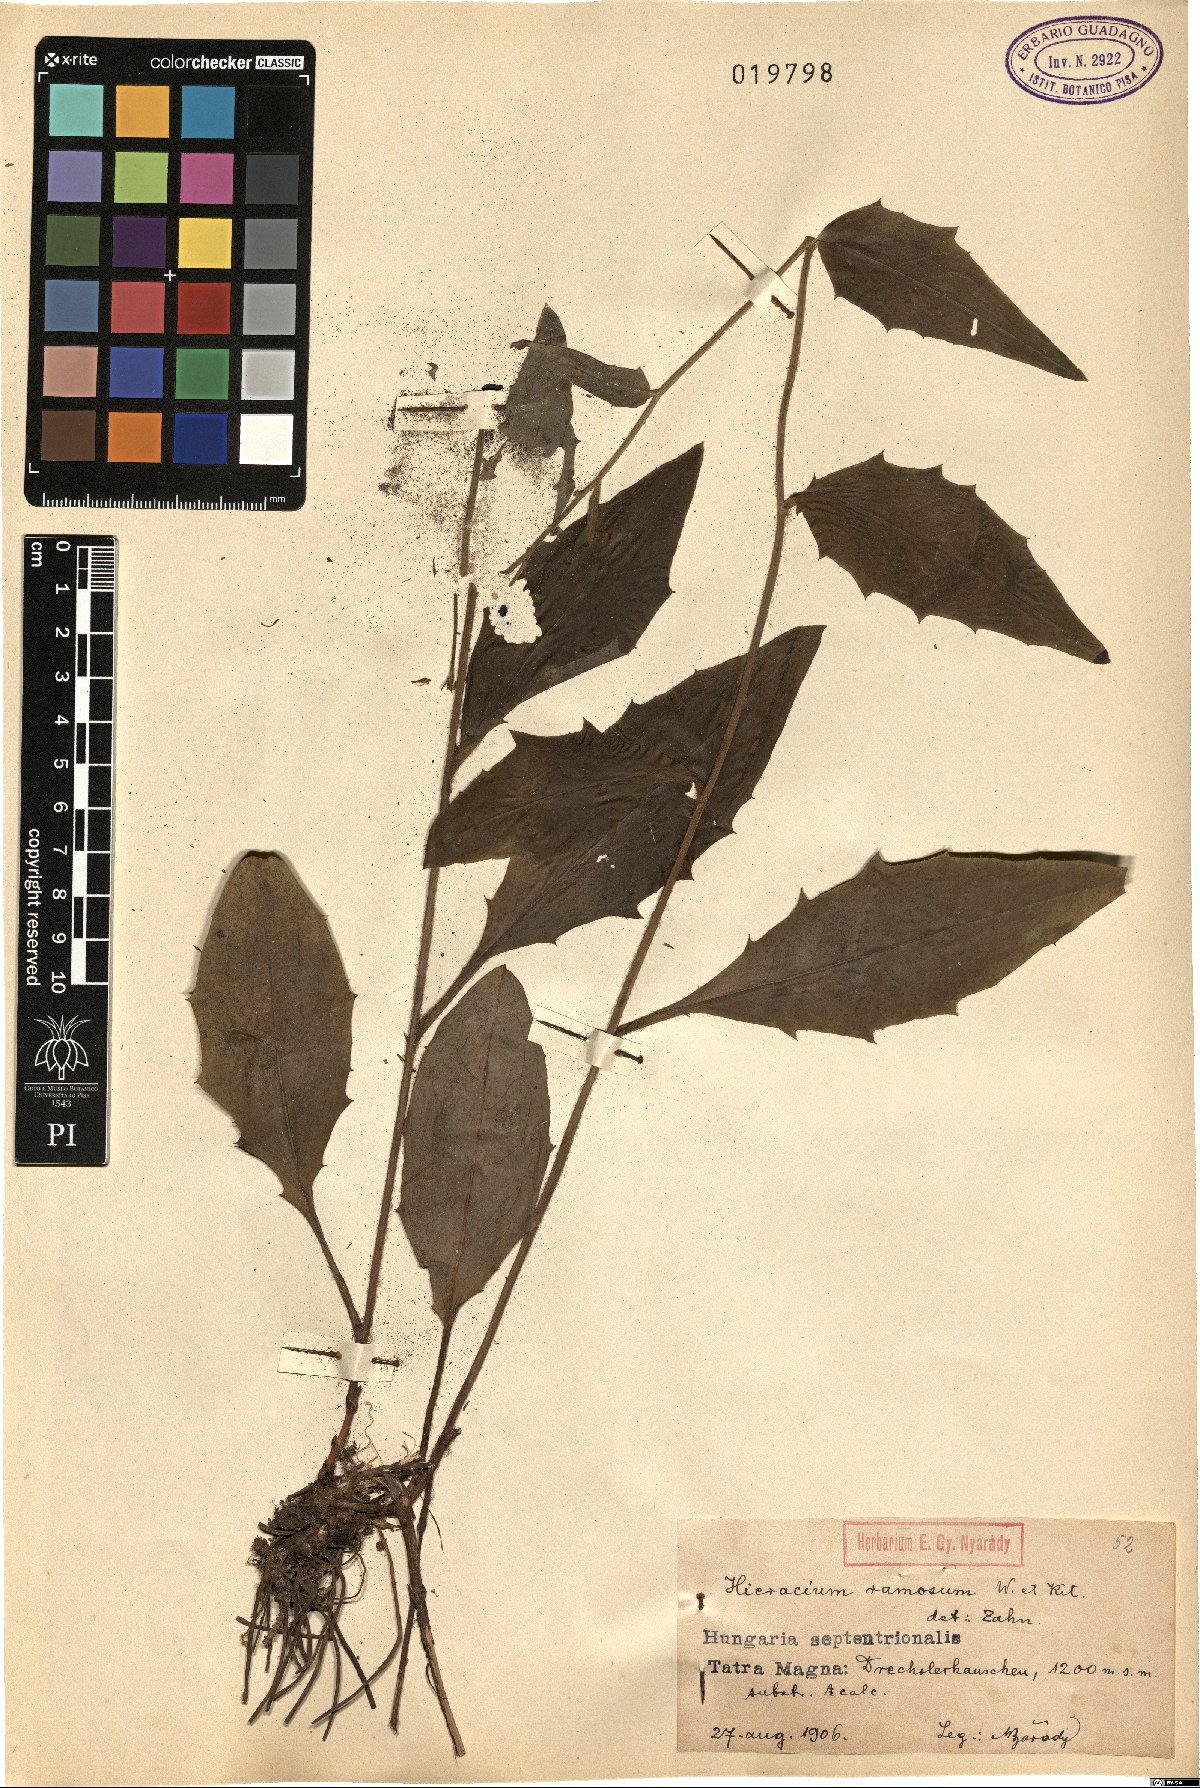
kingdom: Plantae
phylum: Tracheophyta
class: Magnoliopsida
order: Asterales
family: Asteraceae
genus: Hieracium
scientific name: Hieracium ramosum
